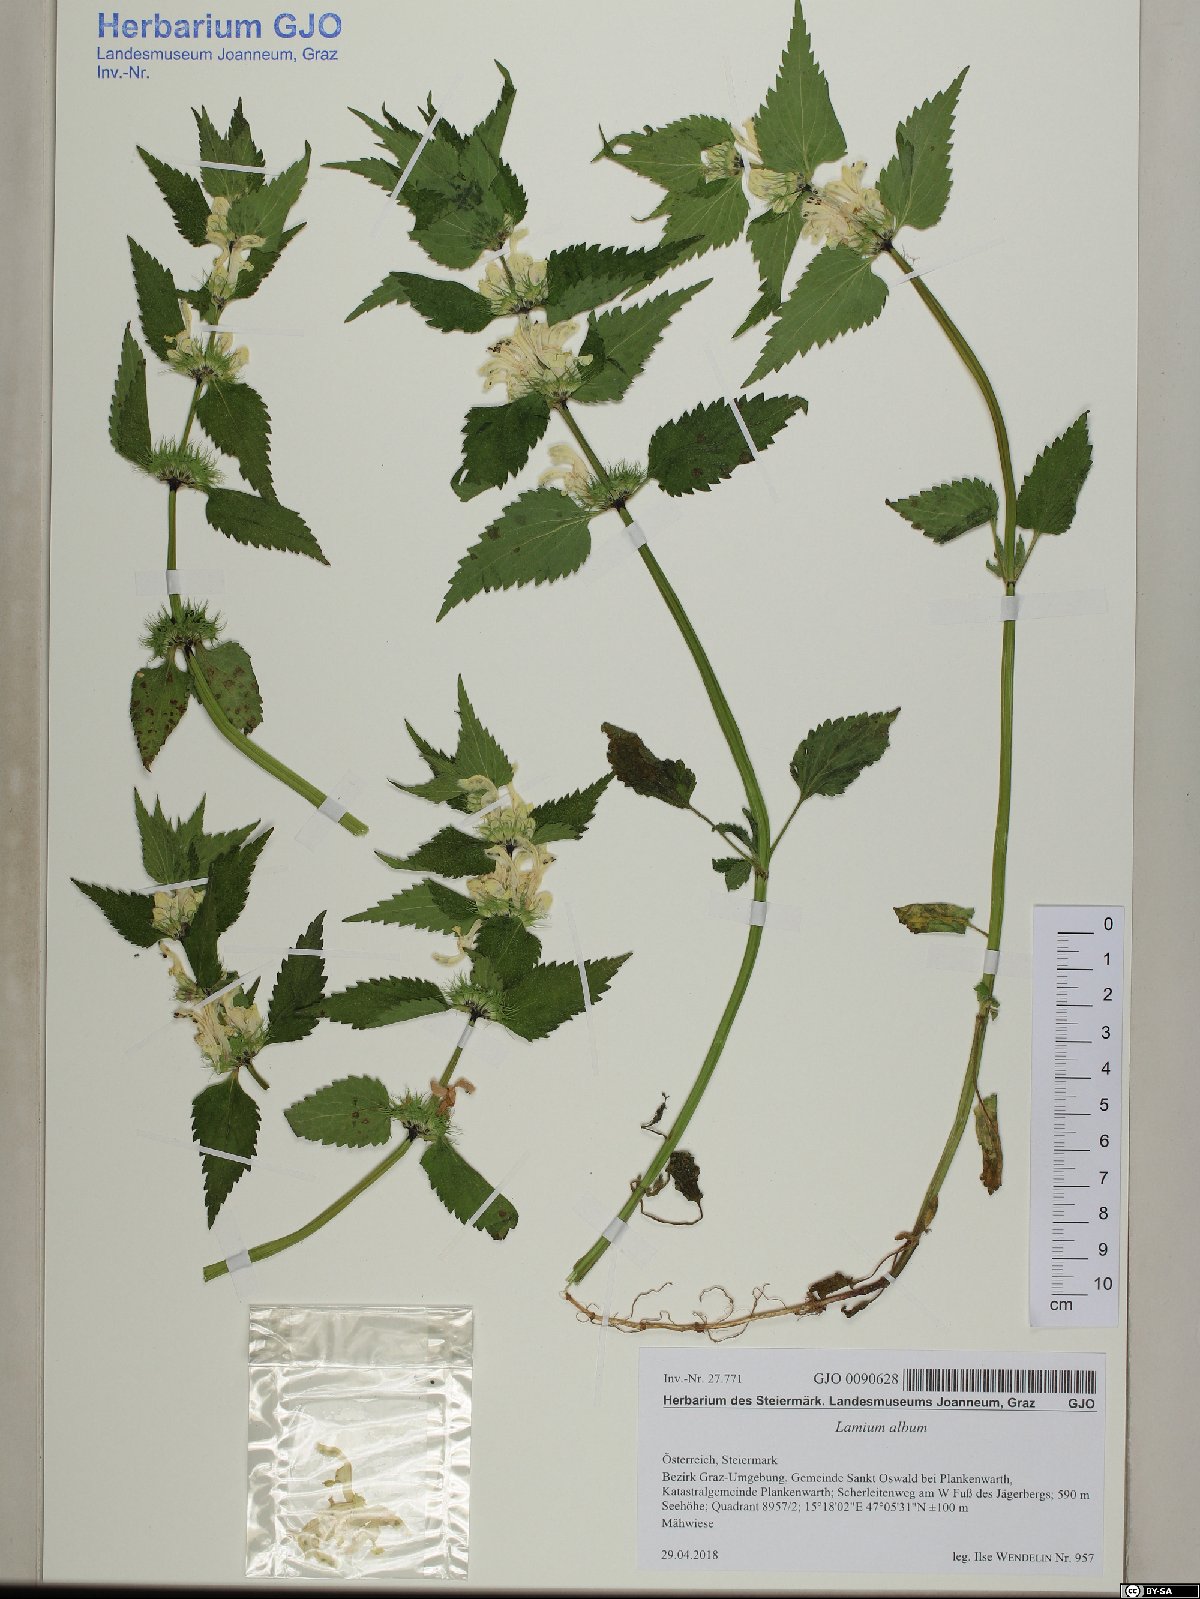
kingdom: Plantae
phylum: Tracheophyta
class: Magnoliopsida
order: Lamiales
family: Lamiaceae
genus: Lamium
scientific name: Lamium album
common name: White dead-nettle
